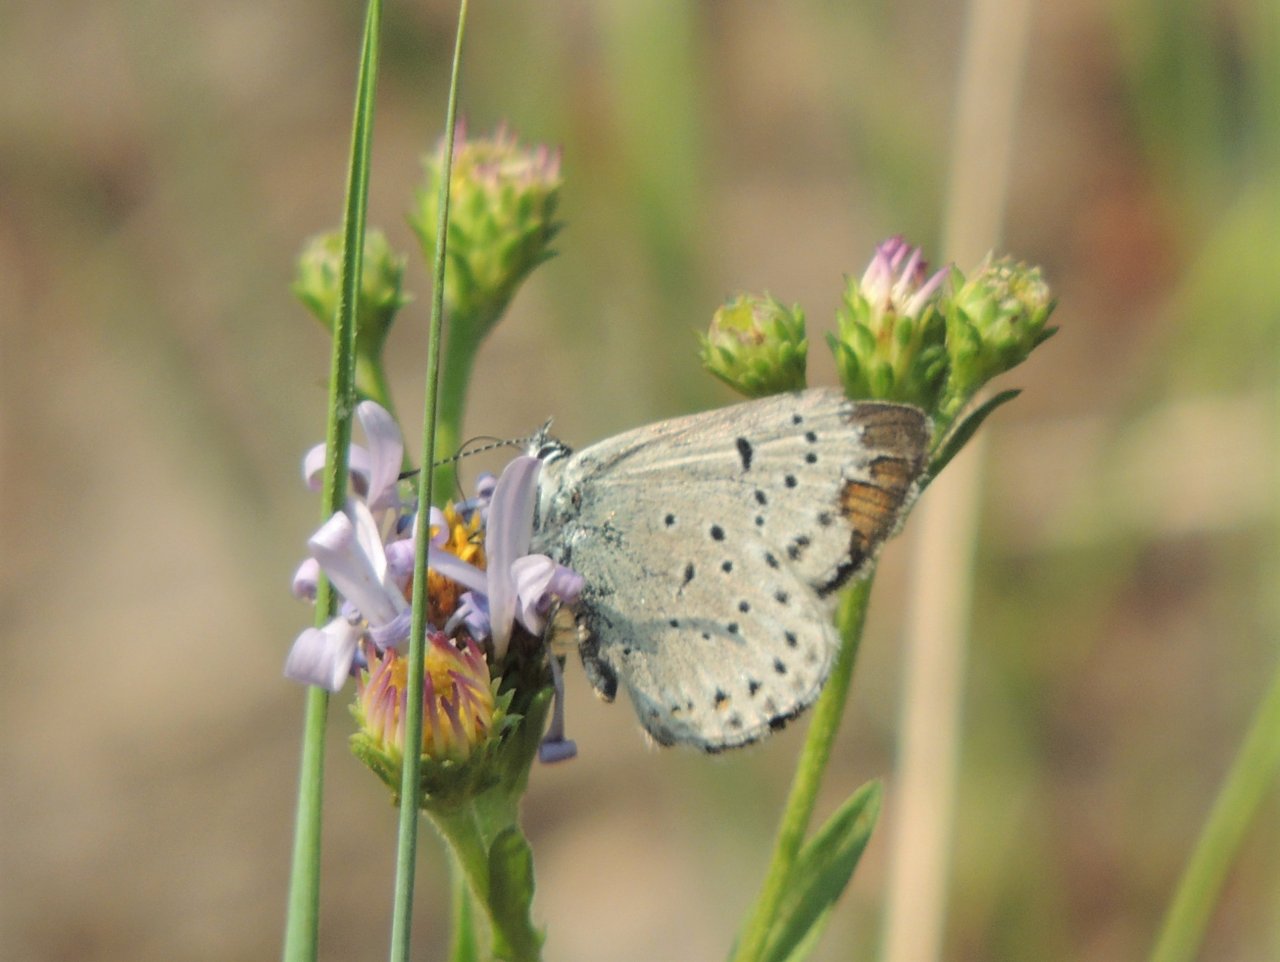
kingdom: Animalia
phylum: Arthropoda
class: Insecta
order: Lepidoptera
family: Lycaenidae
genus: Plebejus
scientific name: Plebejus saepiolus
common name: Greenish Blue
